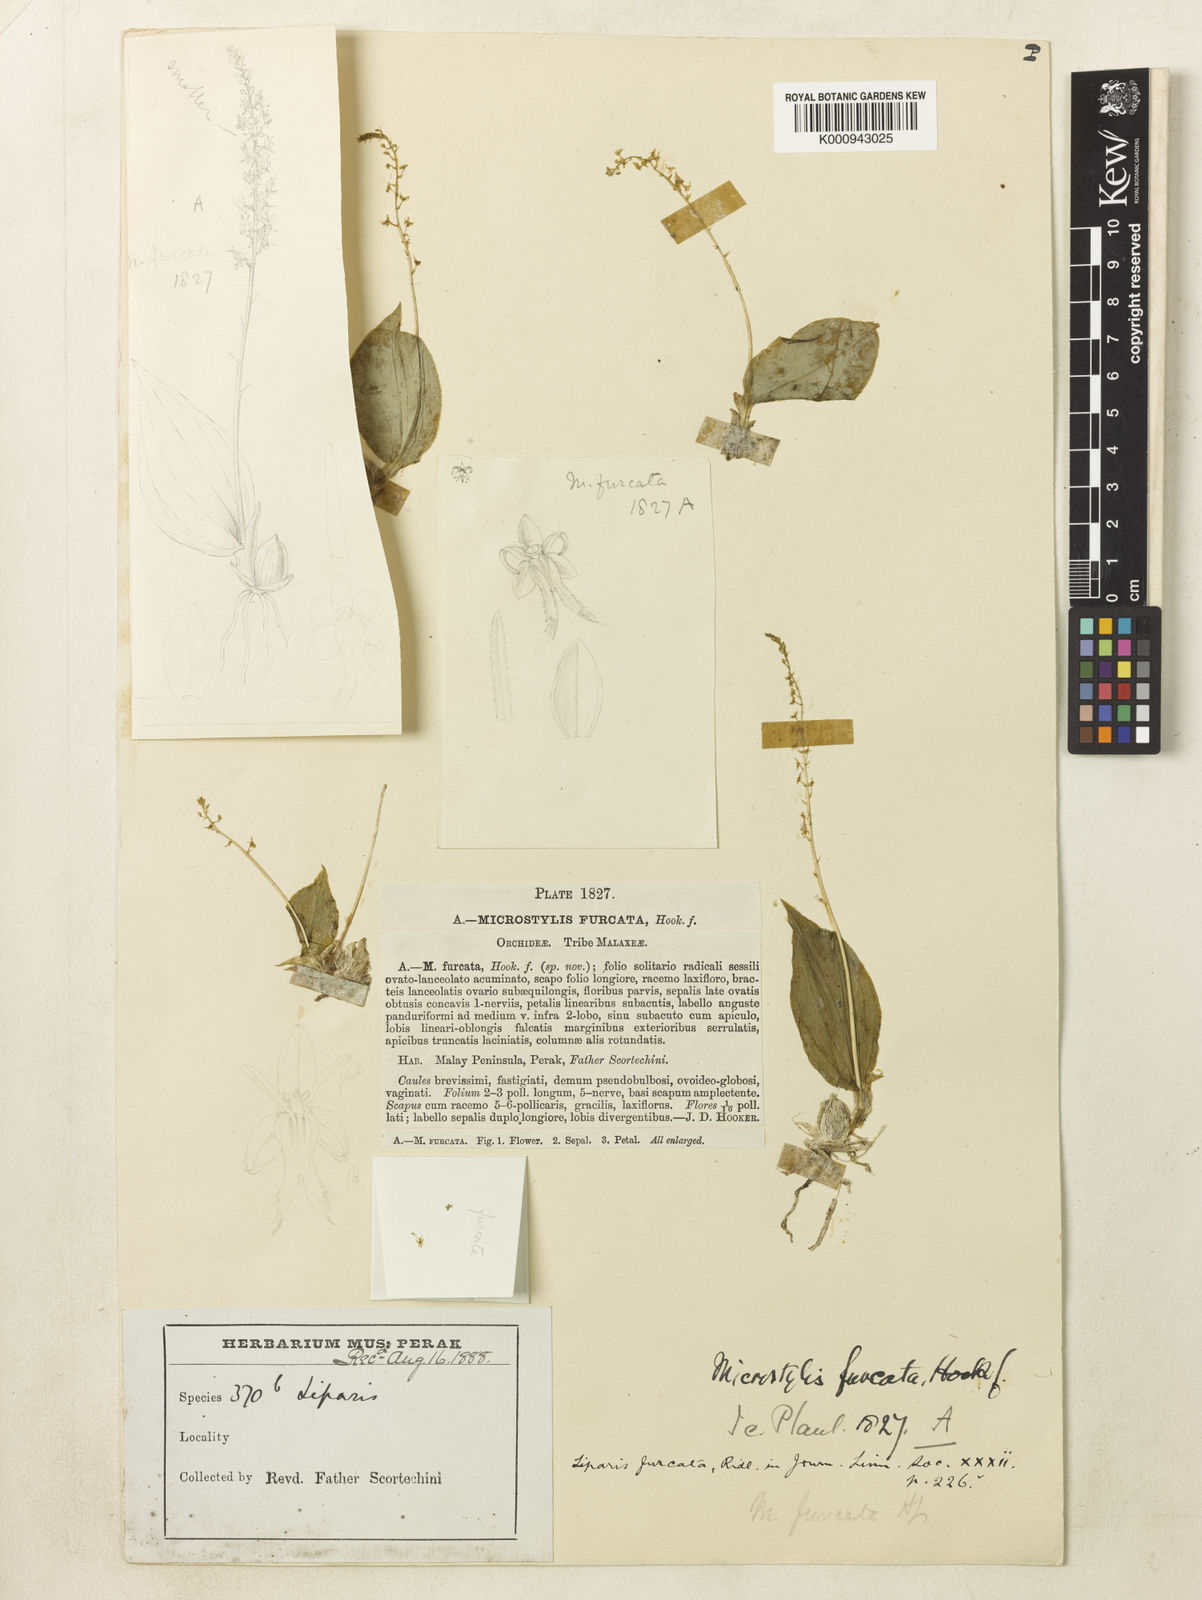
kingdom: Plantae
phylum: Tracheophyta
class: Liliopsida
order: Asparagales
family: Orchidaceae
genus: Oberonioides
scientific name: Oberonioides furcata
